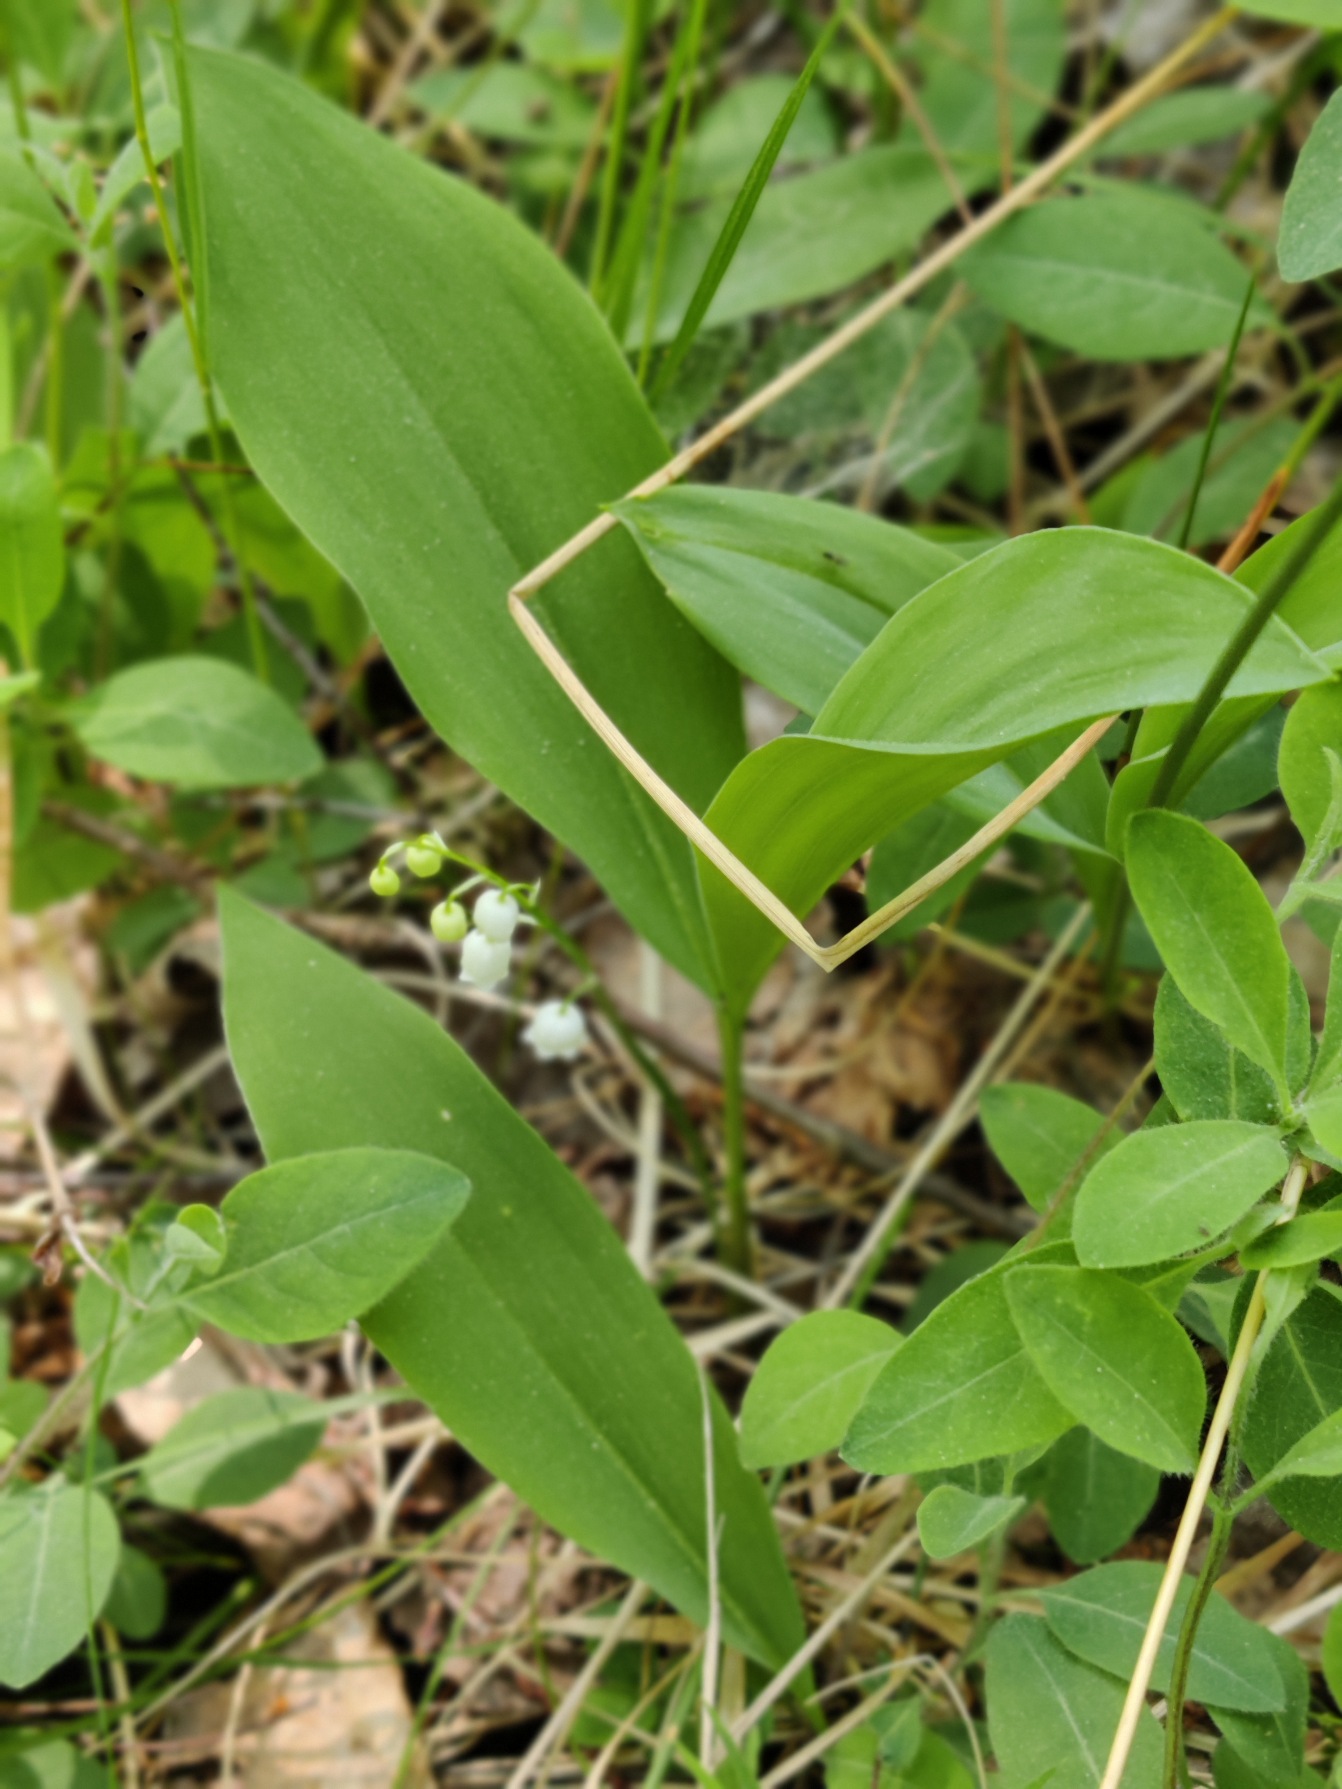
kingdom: Plantae
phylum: Tracheophyta
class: Liliopsida
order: Asparagales
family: Asparagaceae
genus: Convallaria
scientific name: Convallaria majalis
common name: Liljekonval
